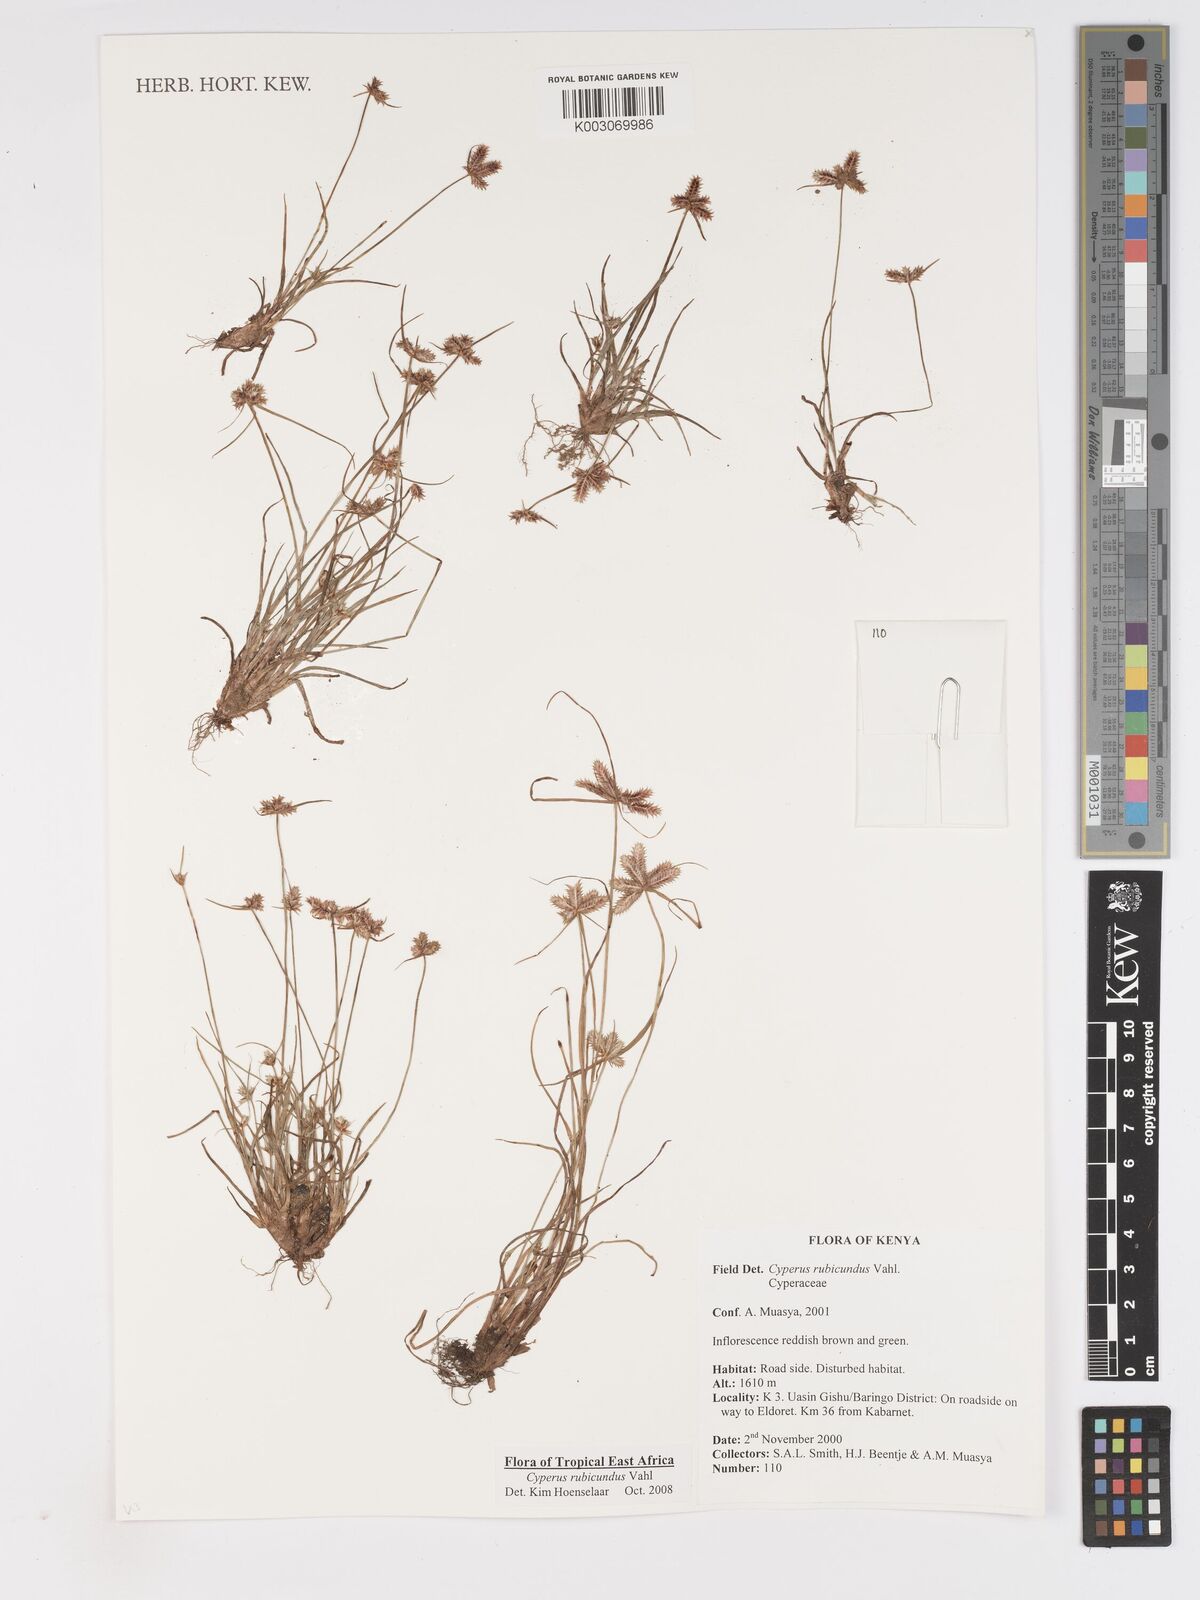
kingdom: Plantae
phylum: Tracheophyta
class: Liliopsida
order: Poales
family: Cyperaceae
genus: Cyperus
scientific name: Cyperus rubicundus
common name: Coco-grass
